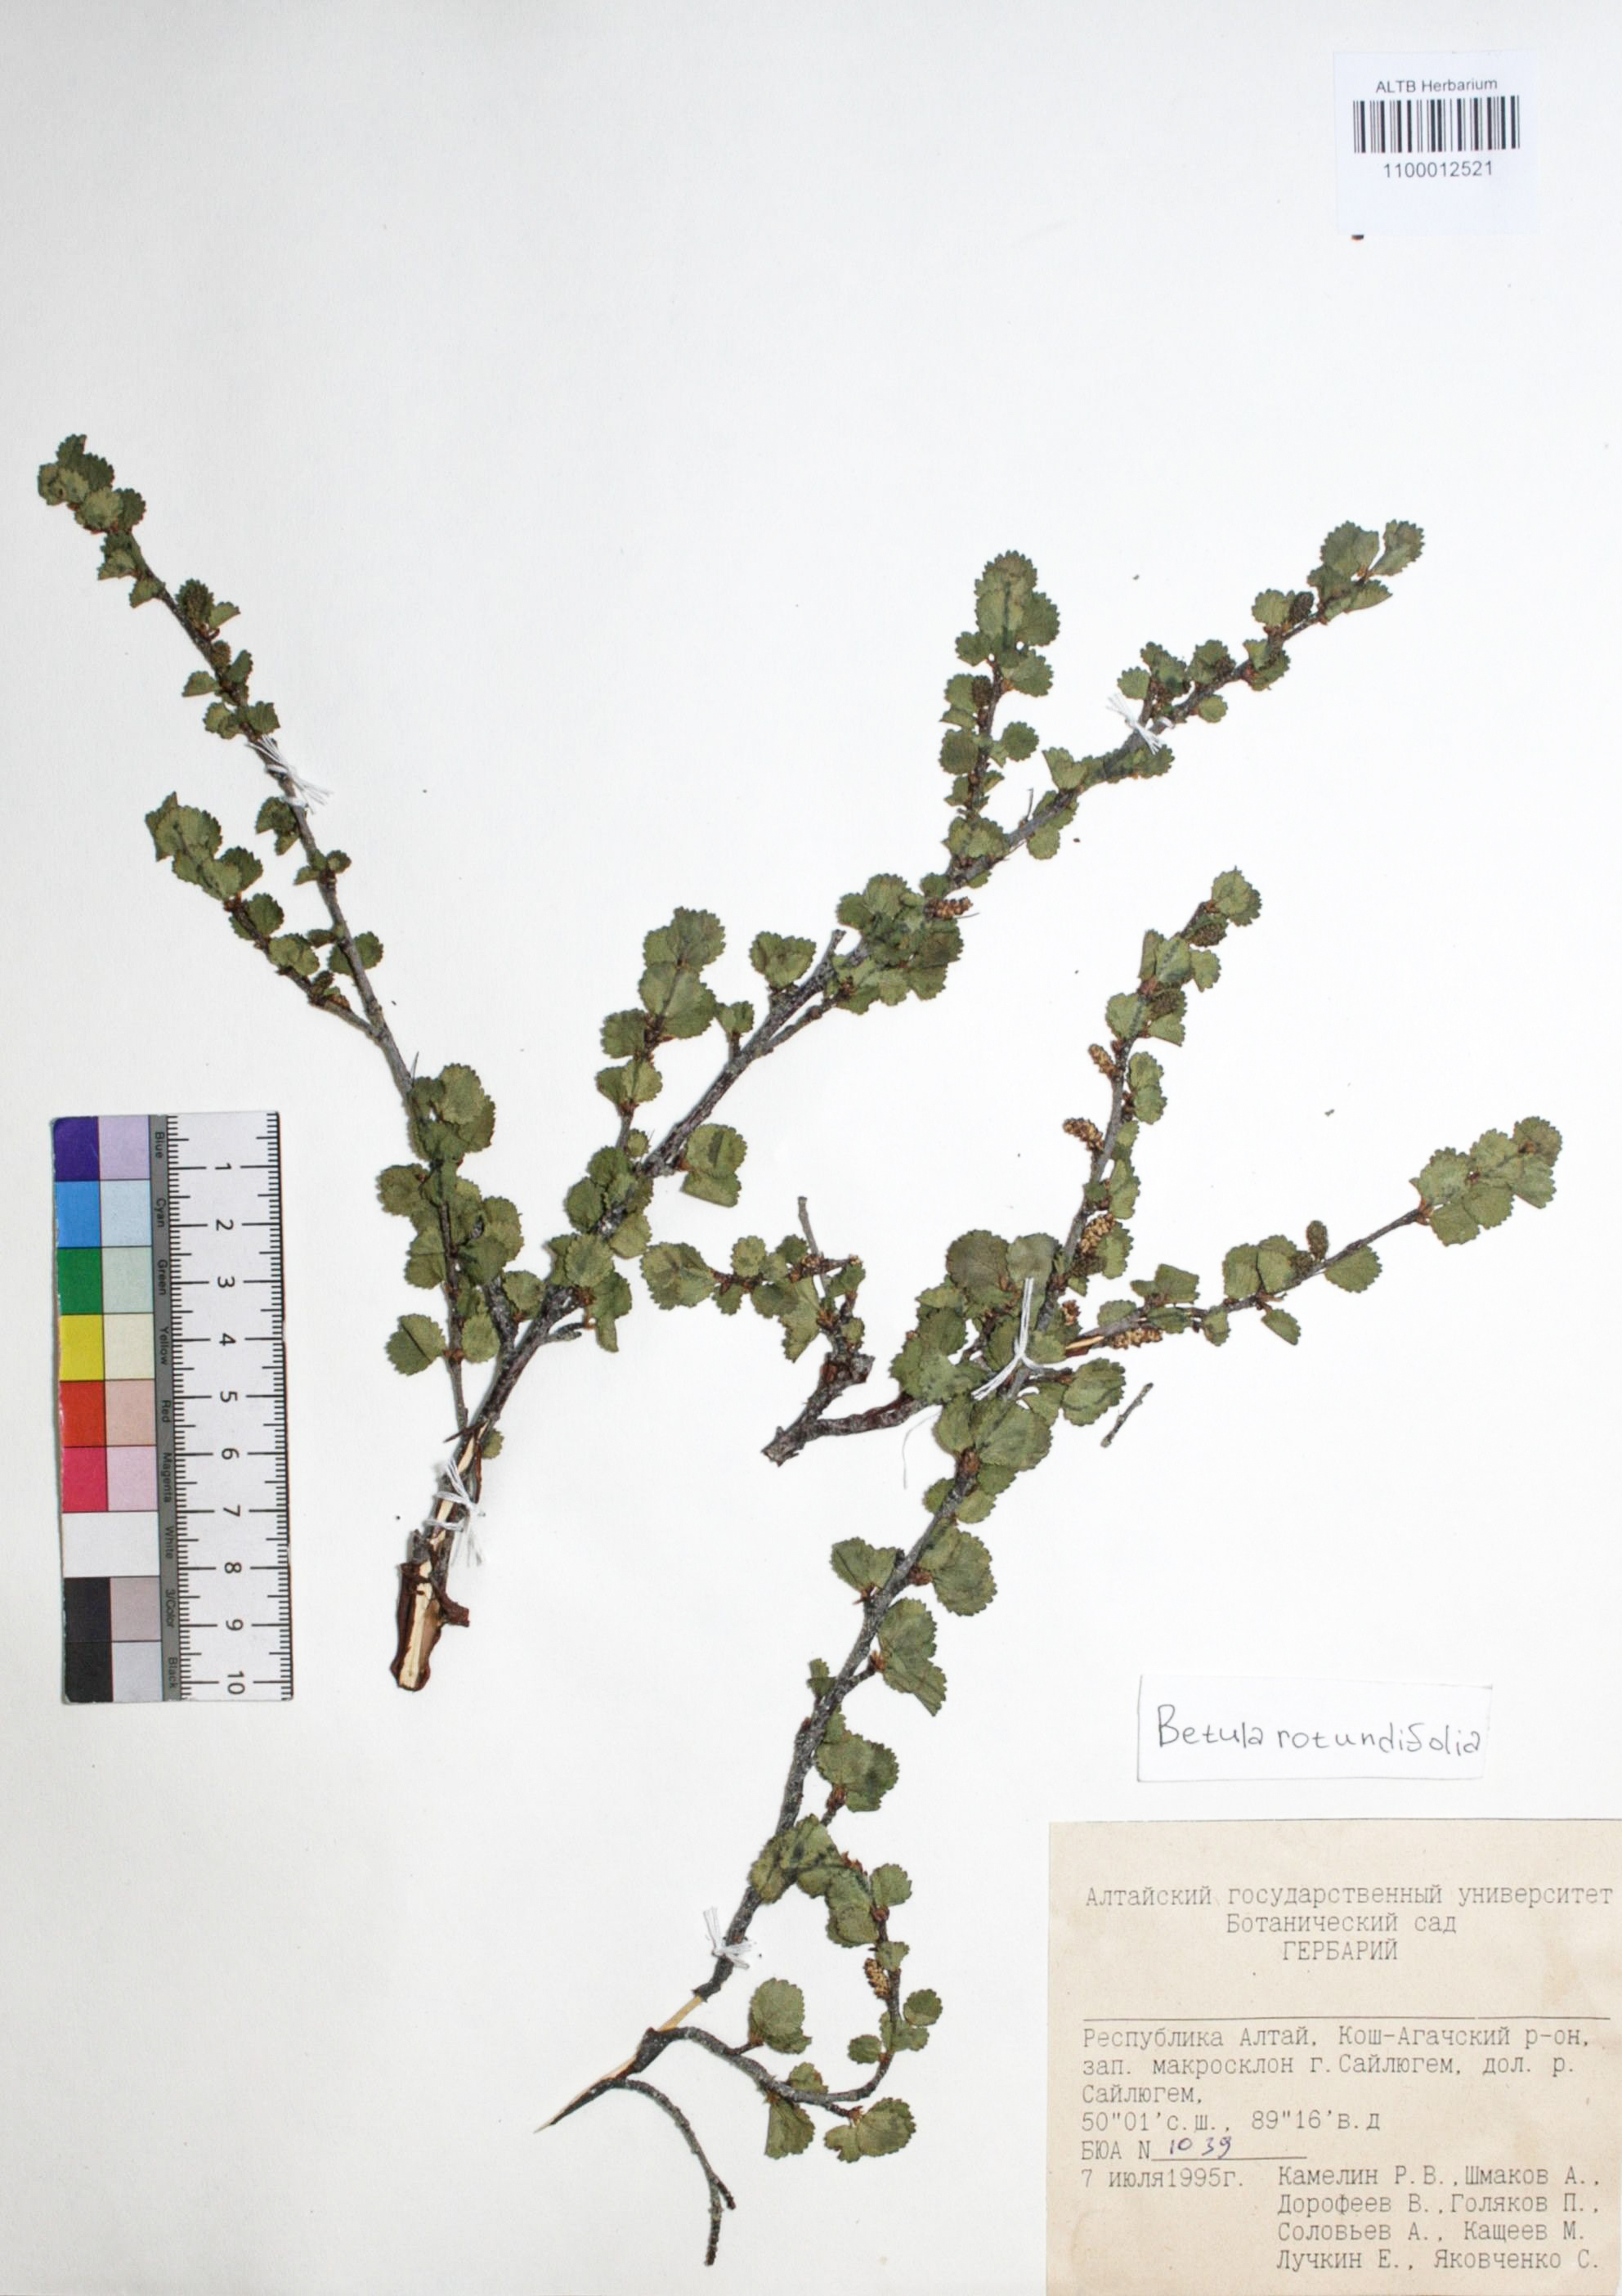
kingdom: Plantae
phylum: Tracheophyta
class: Magnoliopsida
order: Fagales
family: Betulaceae
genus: Betula
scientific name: Betula glandulosa
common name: Dwarf birch
